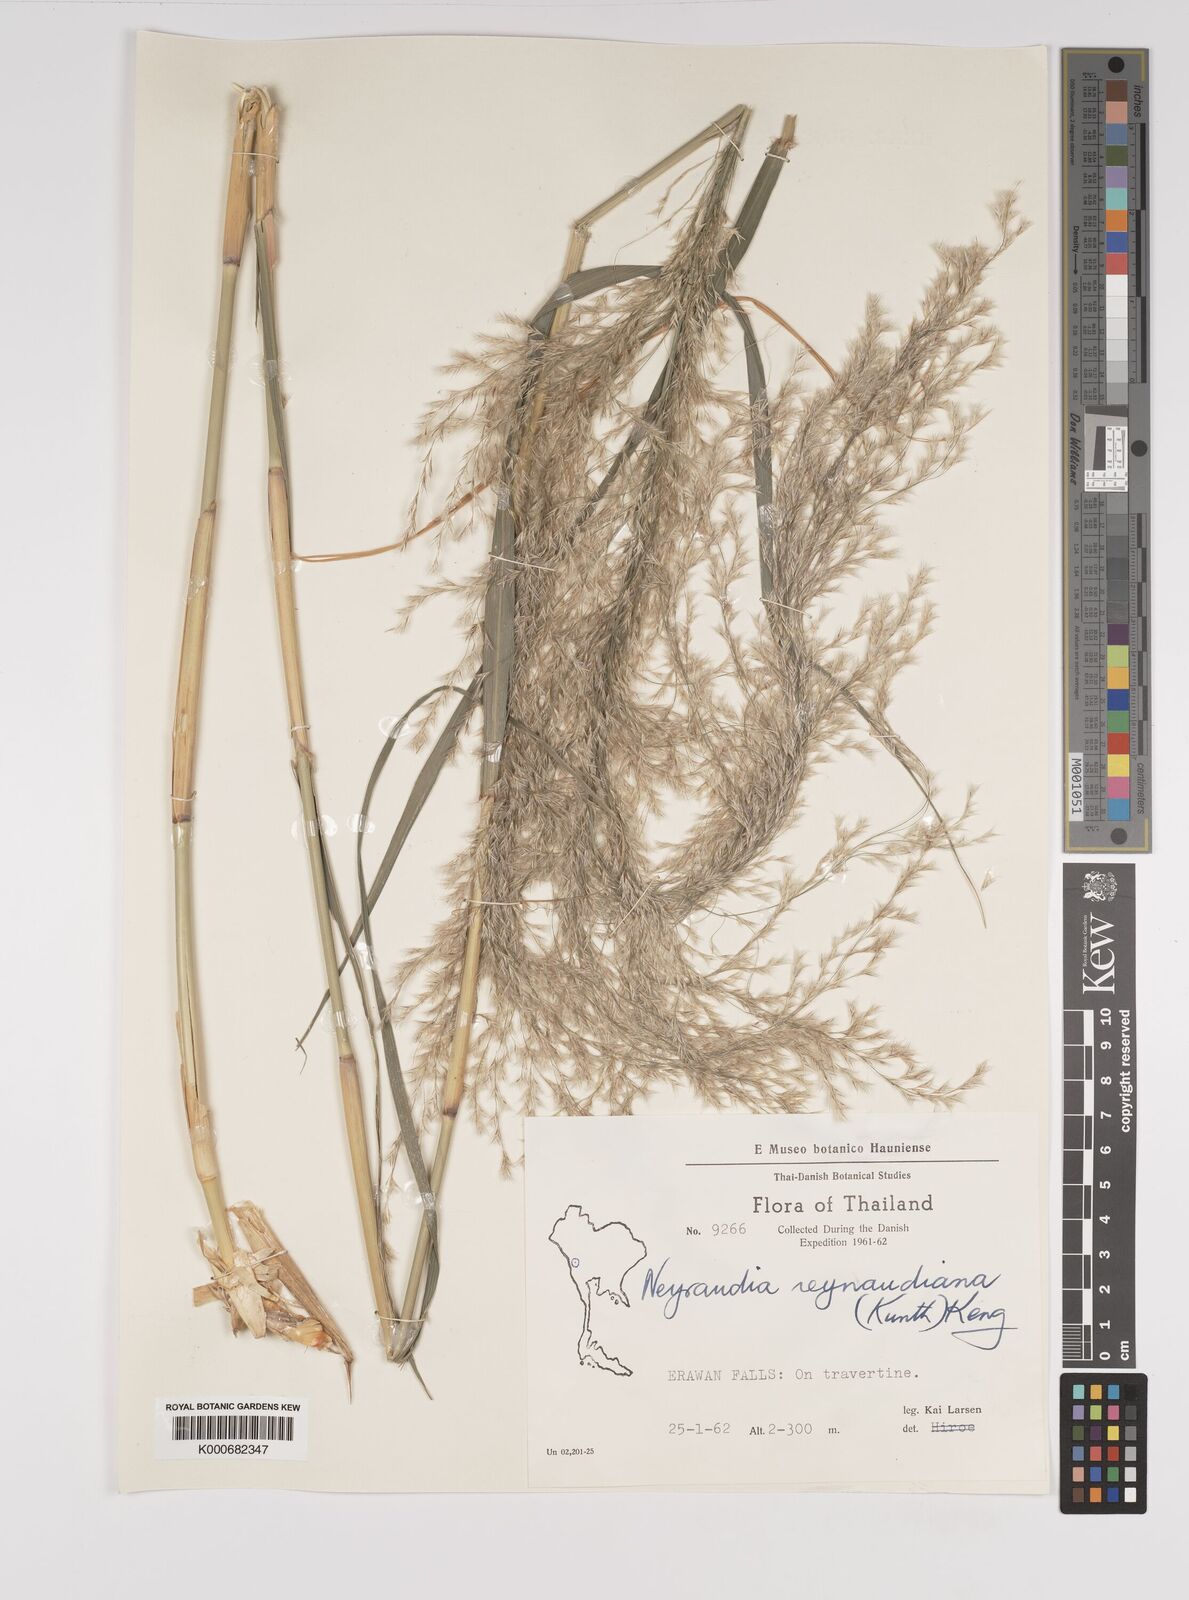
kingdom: Plantae
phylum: Tracheophyta
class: Liliopsida
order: Poales
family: Poaceae
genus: Neyraudia
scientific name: Neyraudia reynaudiana
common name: Silkreed
